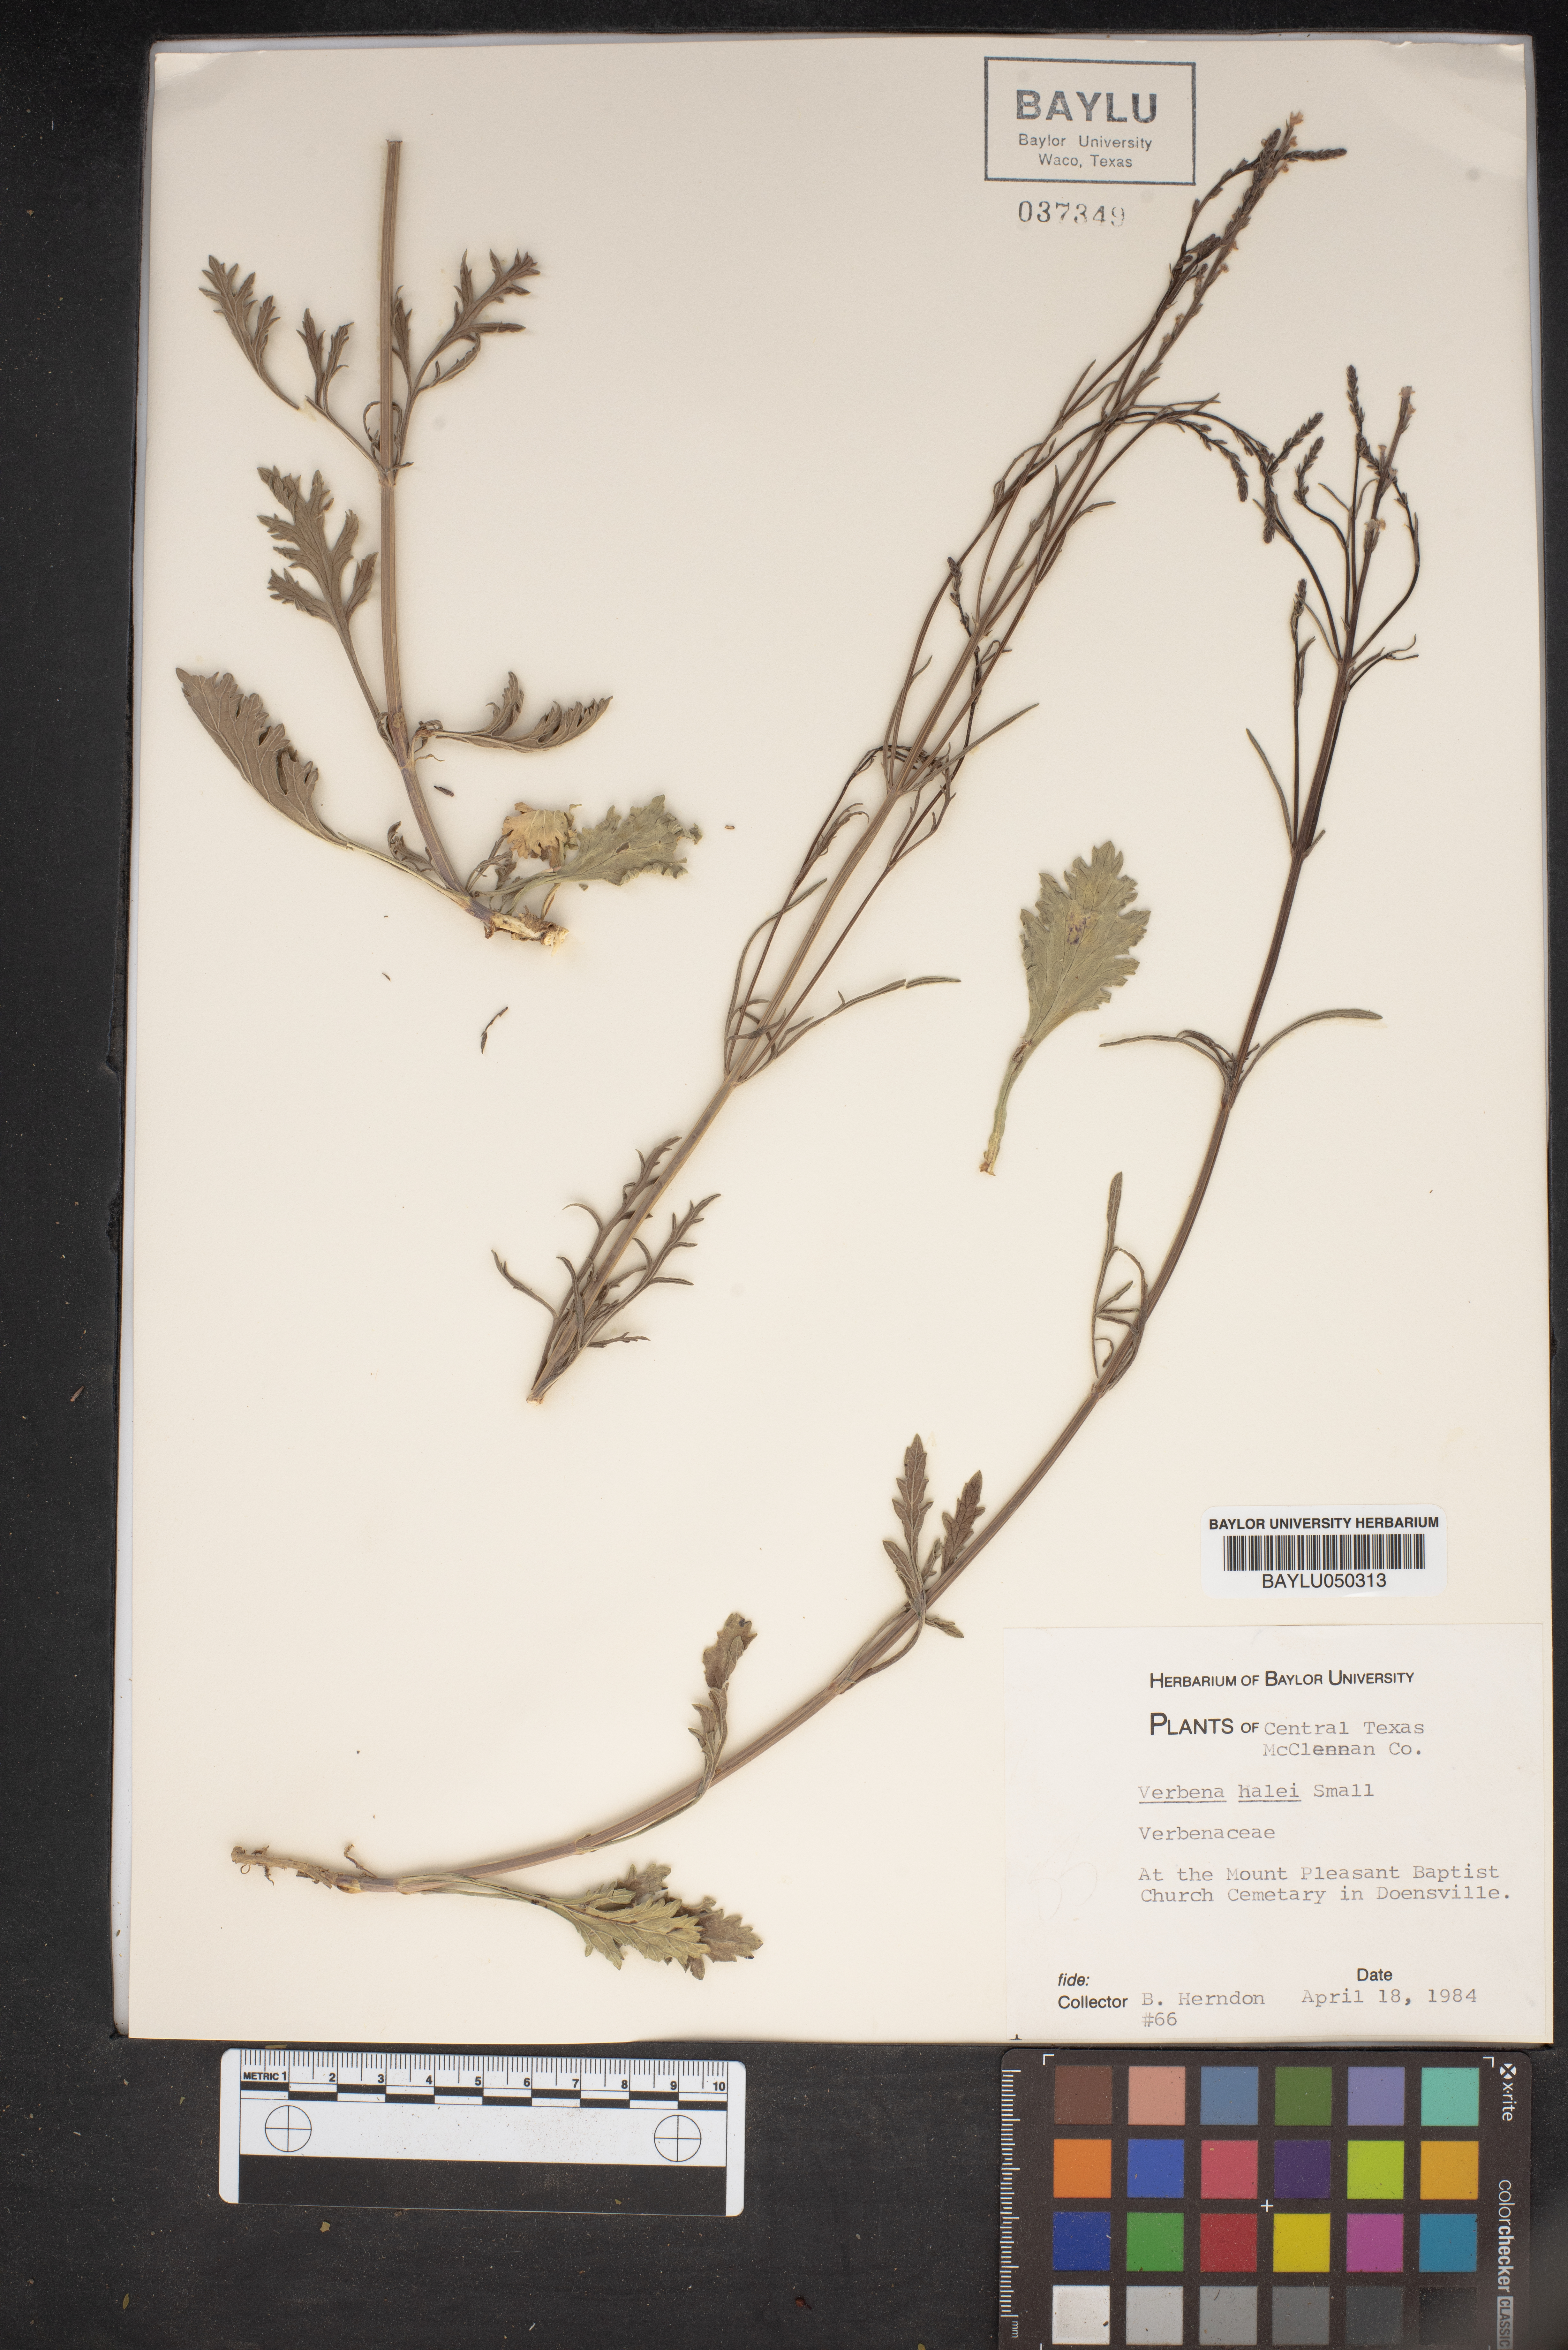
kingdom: Plantae
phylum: Tracheophyta
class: Magnoliopsida
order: Lamiales
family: Verbenaceae
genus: Verbena
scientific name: Verbena halei
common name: Texas vervain
